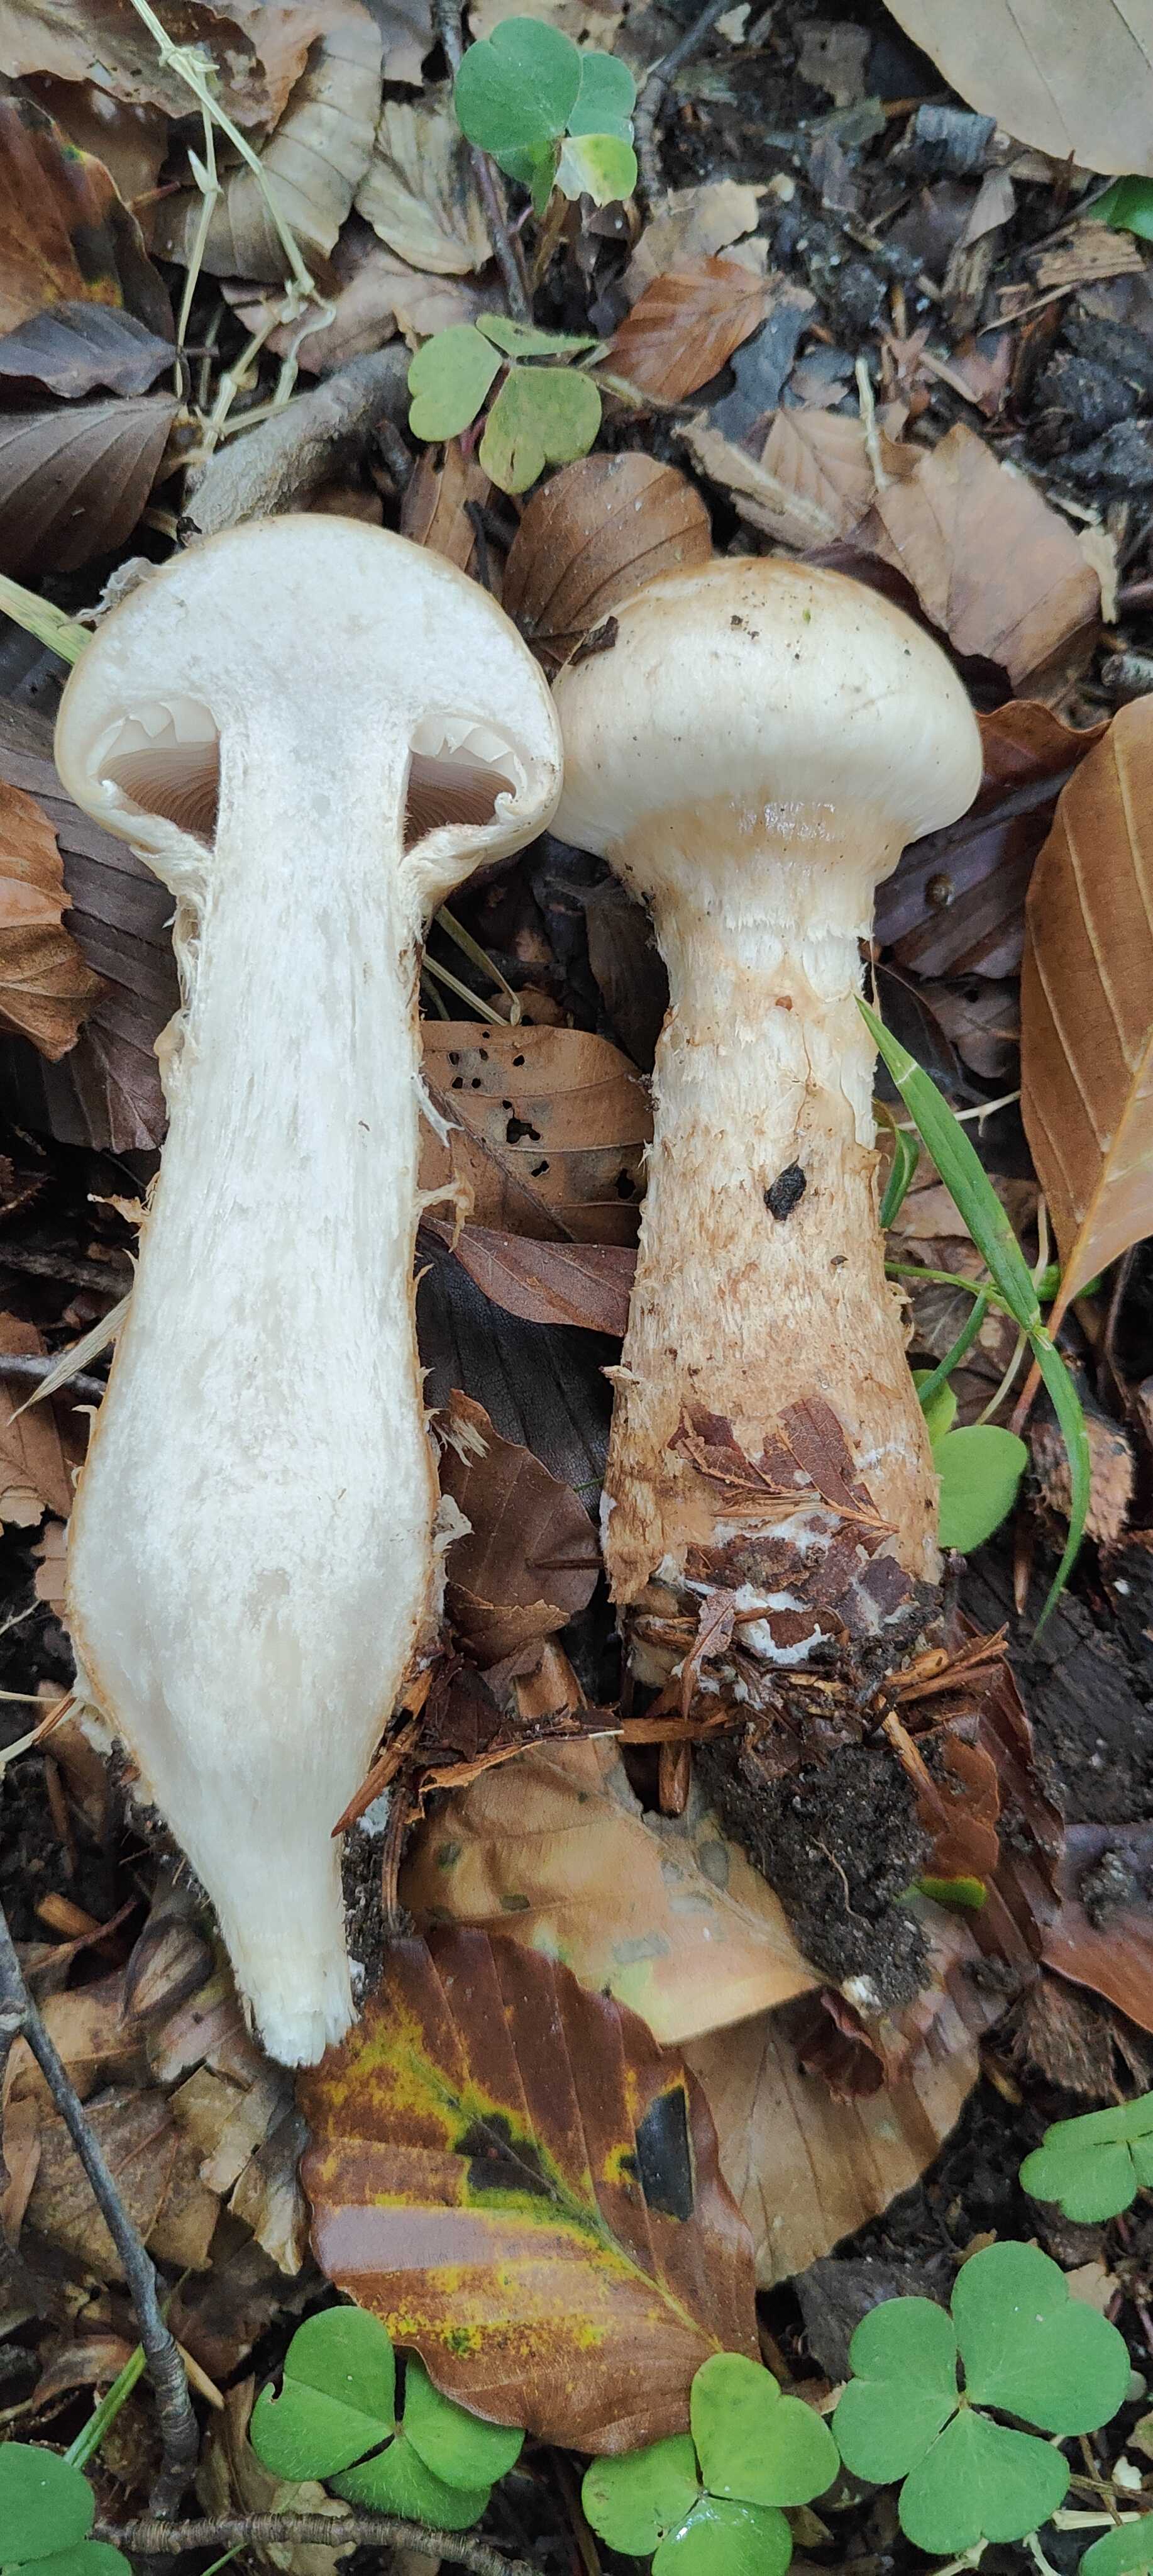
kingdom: Fungi
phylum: Basidiomycota
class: Agaricomycetes
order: Agaricales
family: Hymenogastraceae
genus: Hebeloma
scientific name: Hebeloma radicosum
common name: pælerods-tåreblad
